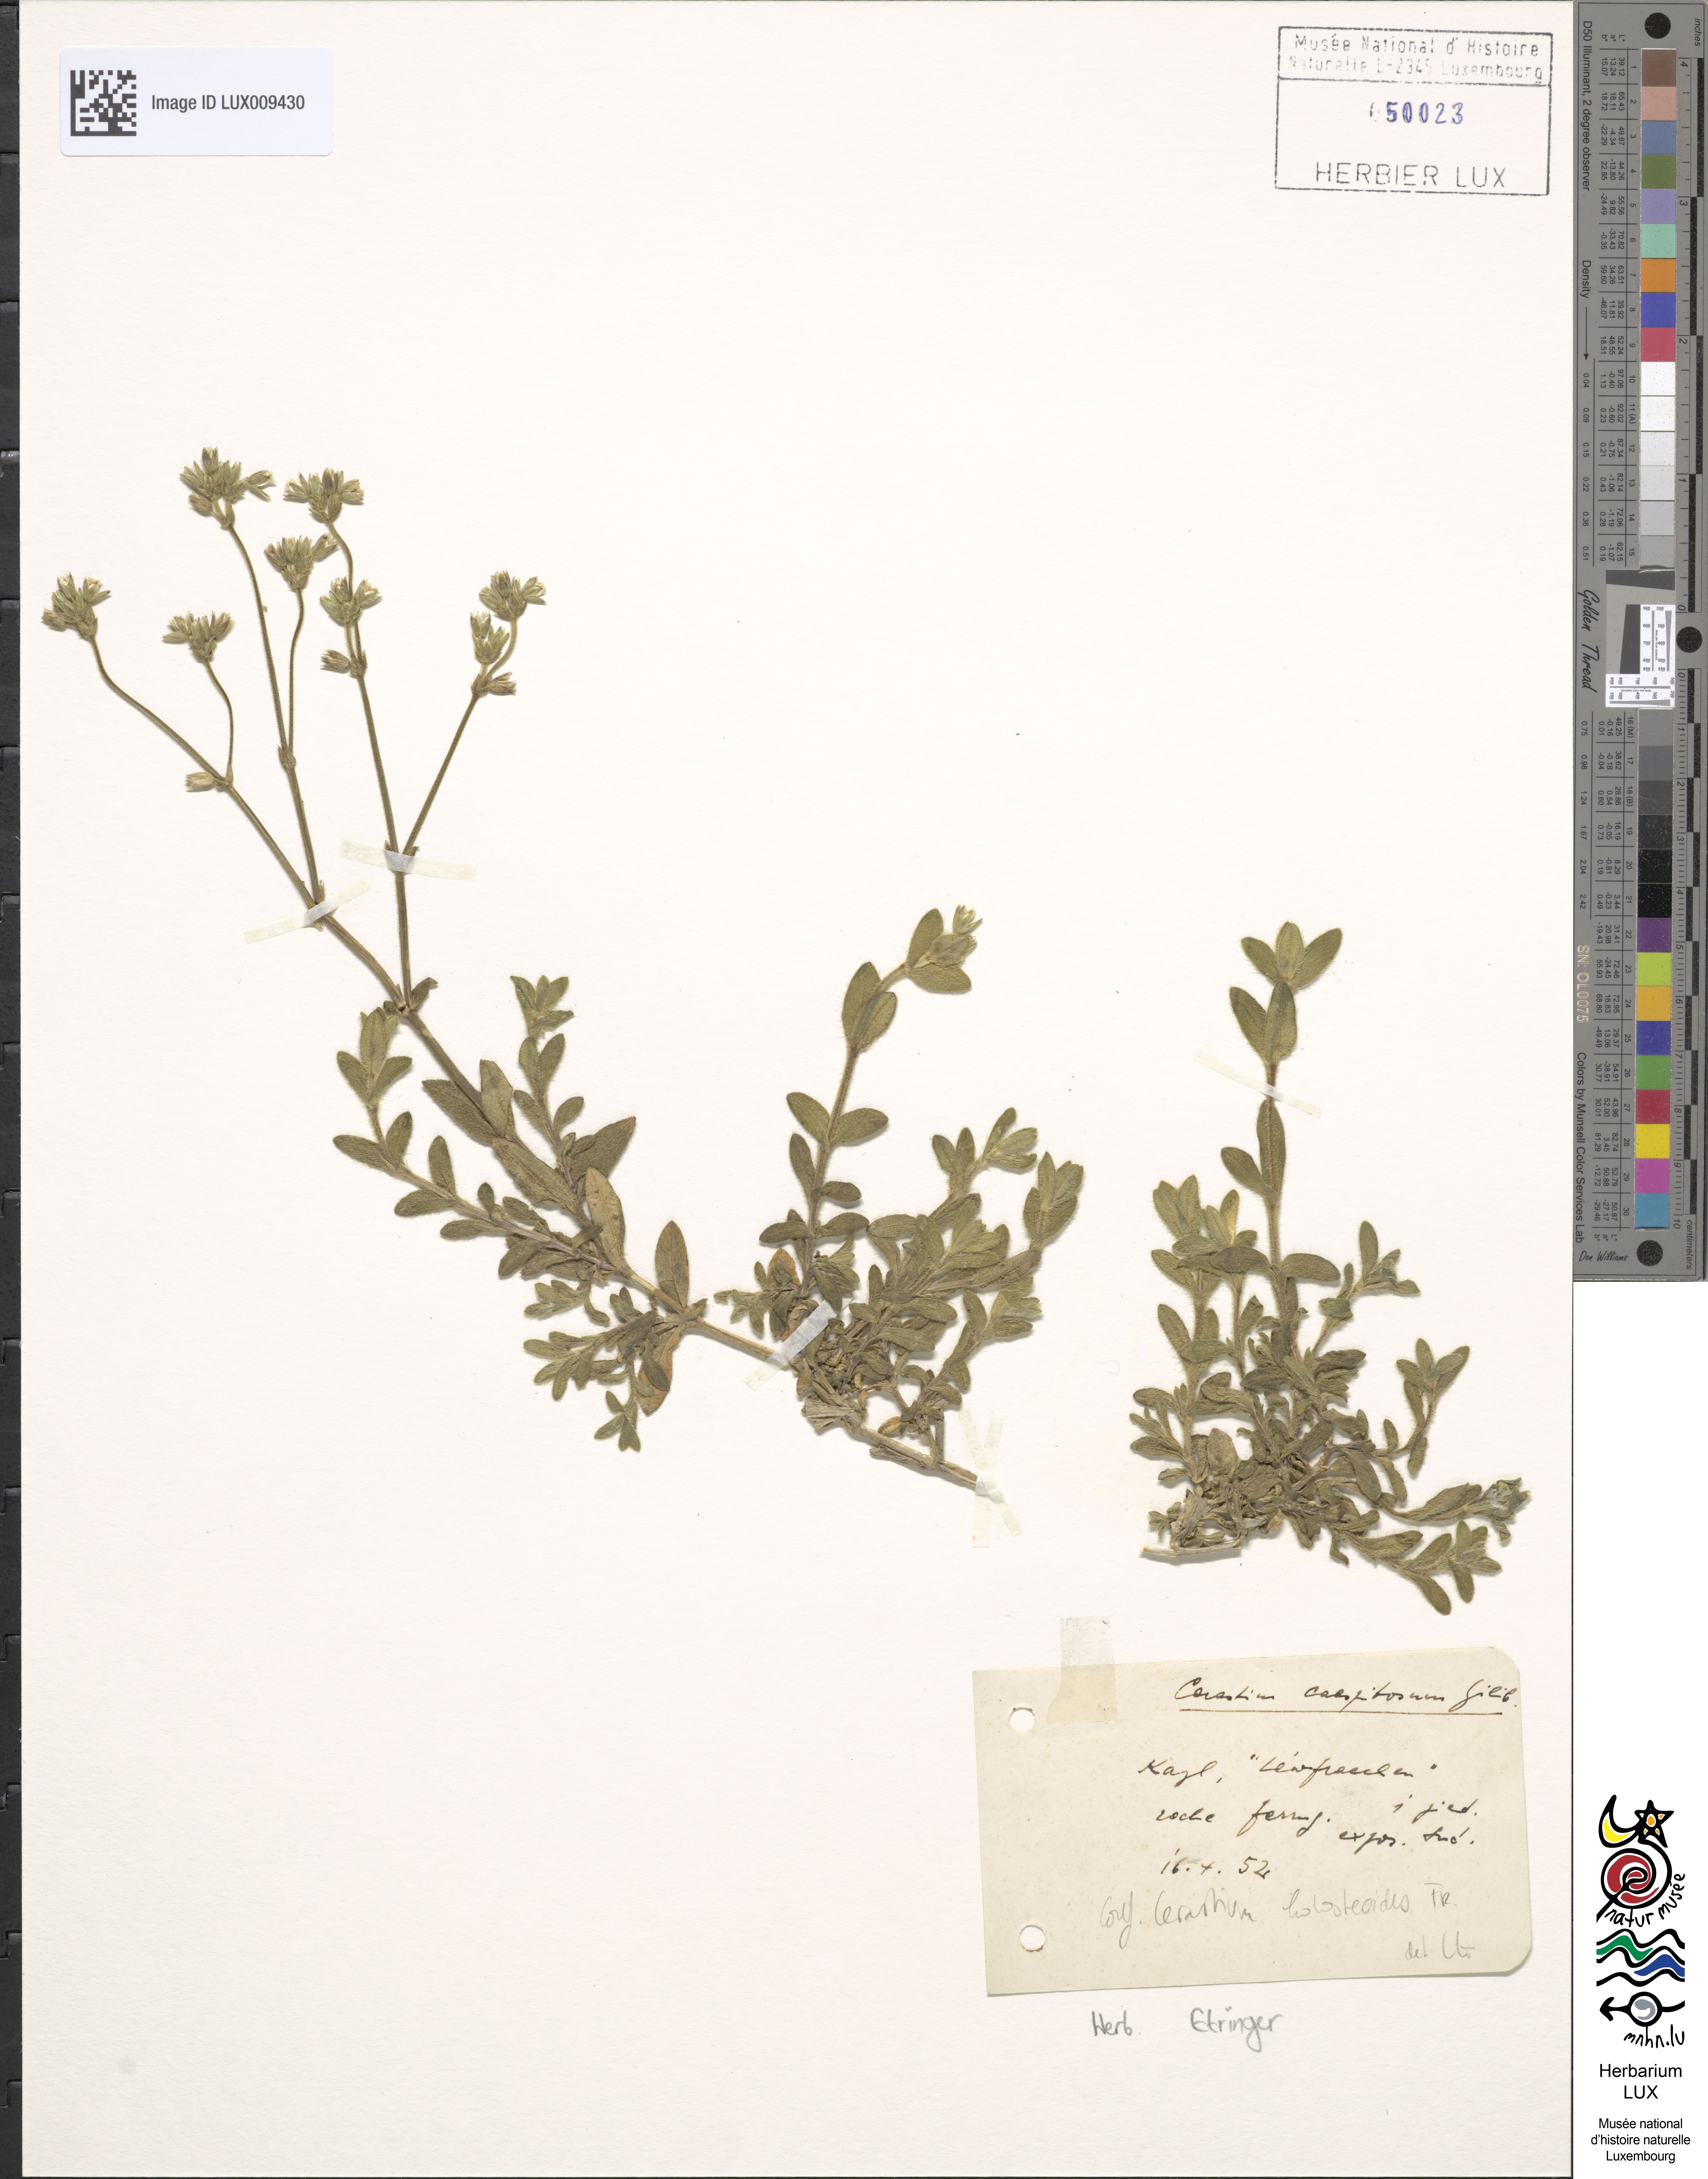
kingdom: Plantae
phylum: Tracheophyta
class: Magnoliopsida
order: Caryophyllales
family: Caryophyllaceae
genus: Cerastium
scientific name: Cerastium holosteoides
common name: Big chickweed
